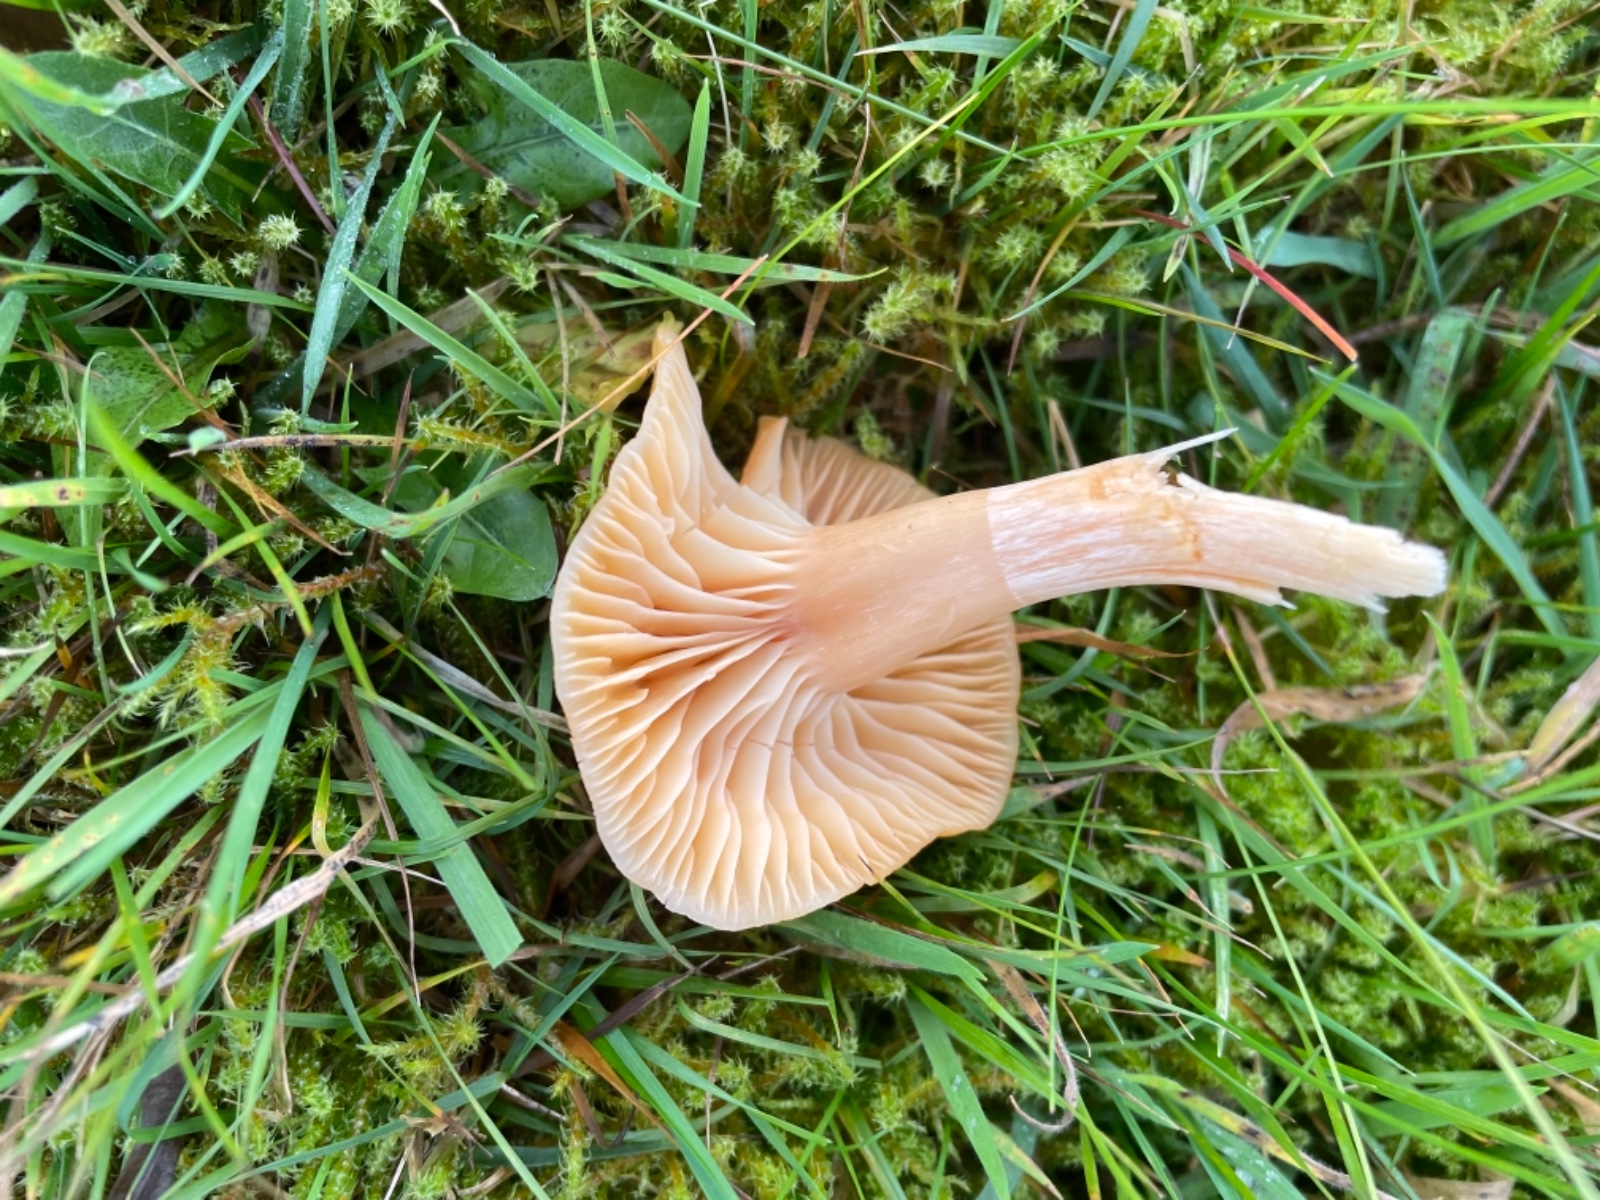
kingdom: Fungi
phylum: Basidiomycota
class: Agaricomycetes
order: Agaricales
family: Hygrophoraceae
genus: Cuphophyllus
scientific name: Cuphophyllus pratensis
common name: eng-vokshat
